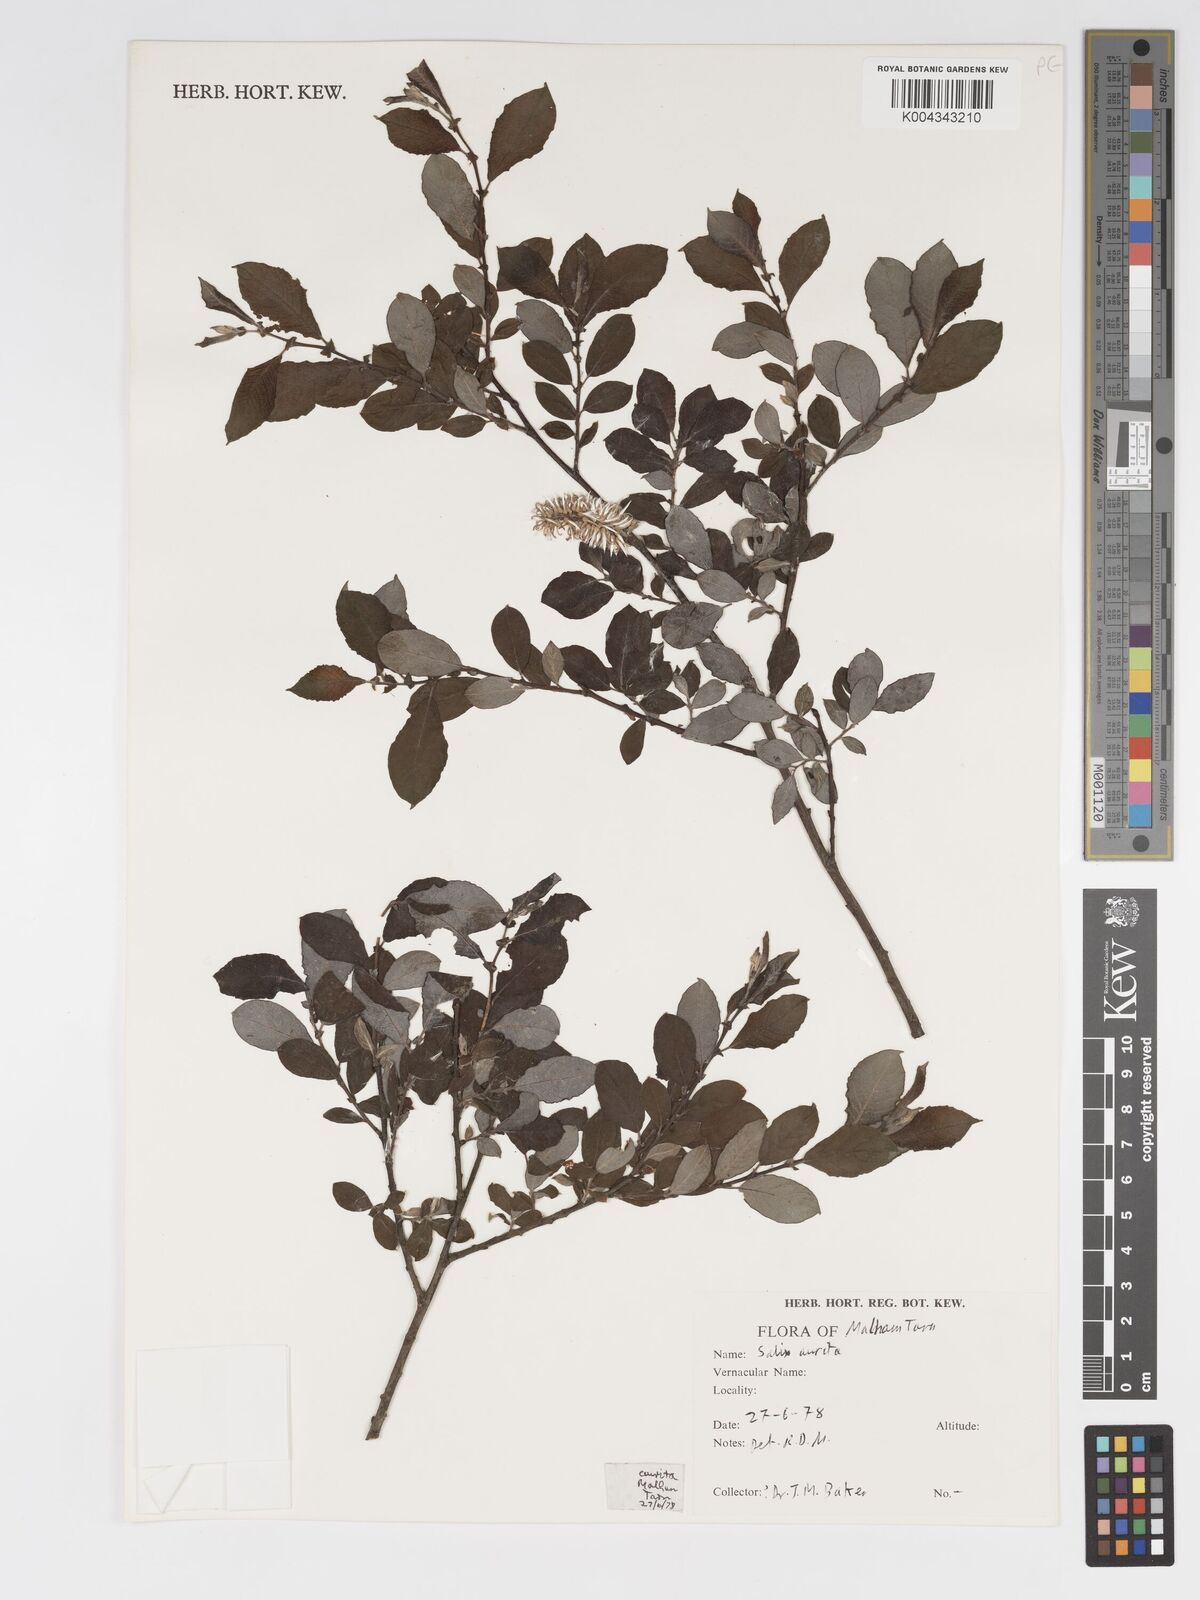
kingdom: Plantae
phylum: Tracheophyta
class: Magnoliopsida
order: Malpighiales
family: Salicaceae
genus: Salix
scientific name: Salix aurita
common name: Eared willow
